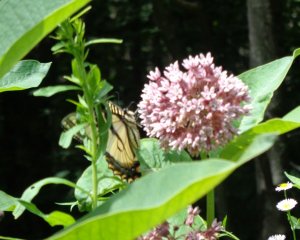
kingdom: Animalia
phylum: Arthropoda
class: Insecta
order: Lepidoptera
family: Papilionidae
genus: Pterourus
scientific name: Pterourus glaucus
